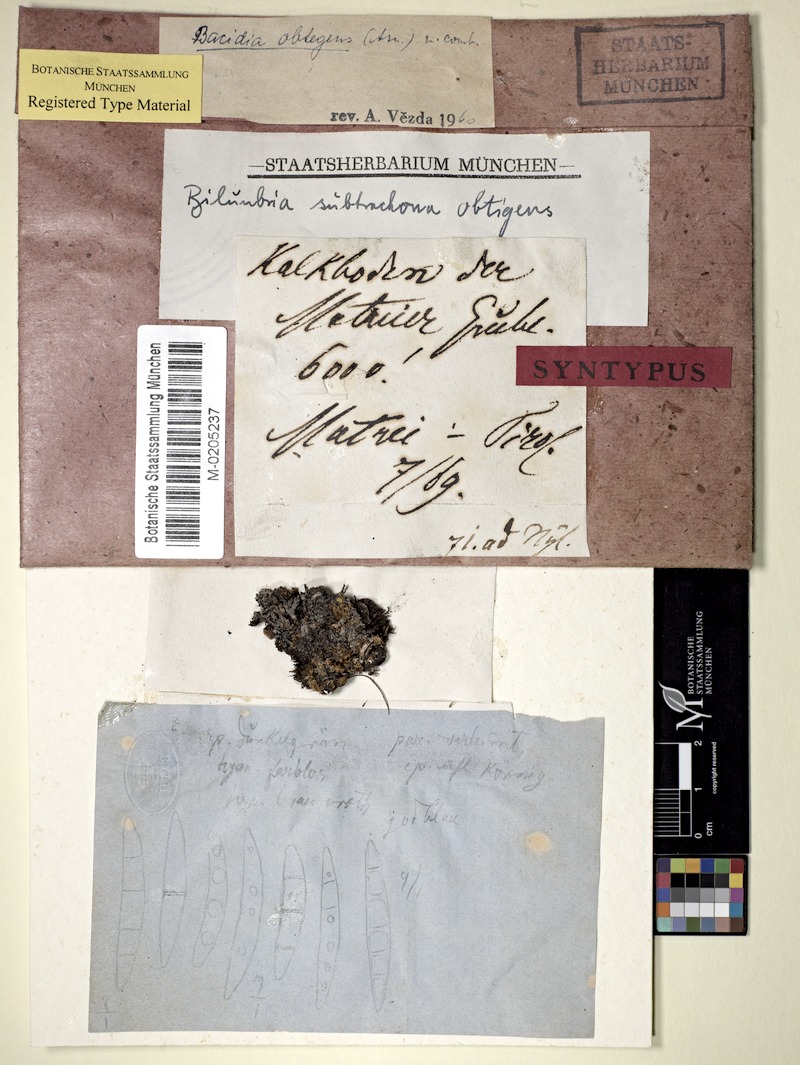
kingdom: Fungi
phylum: Ascomycota
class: Lecanoromycetes
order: Lecanorales
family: Ramalinaceae
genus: Bacidia
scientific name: Bacidia
